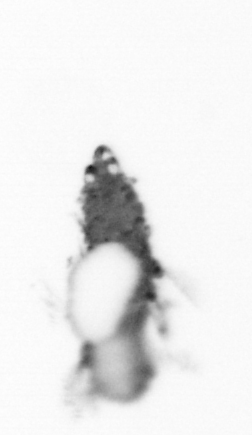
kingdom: Animalia
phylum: Annelida
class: Polychaeta
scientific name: Polychaeta
